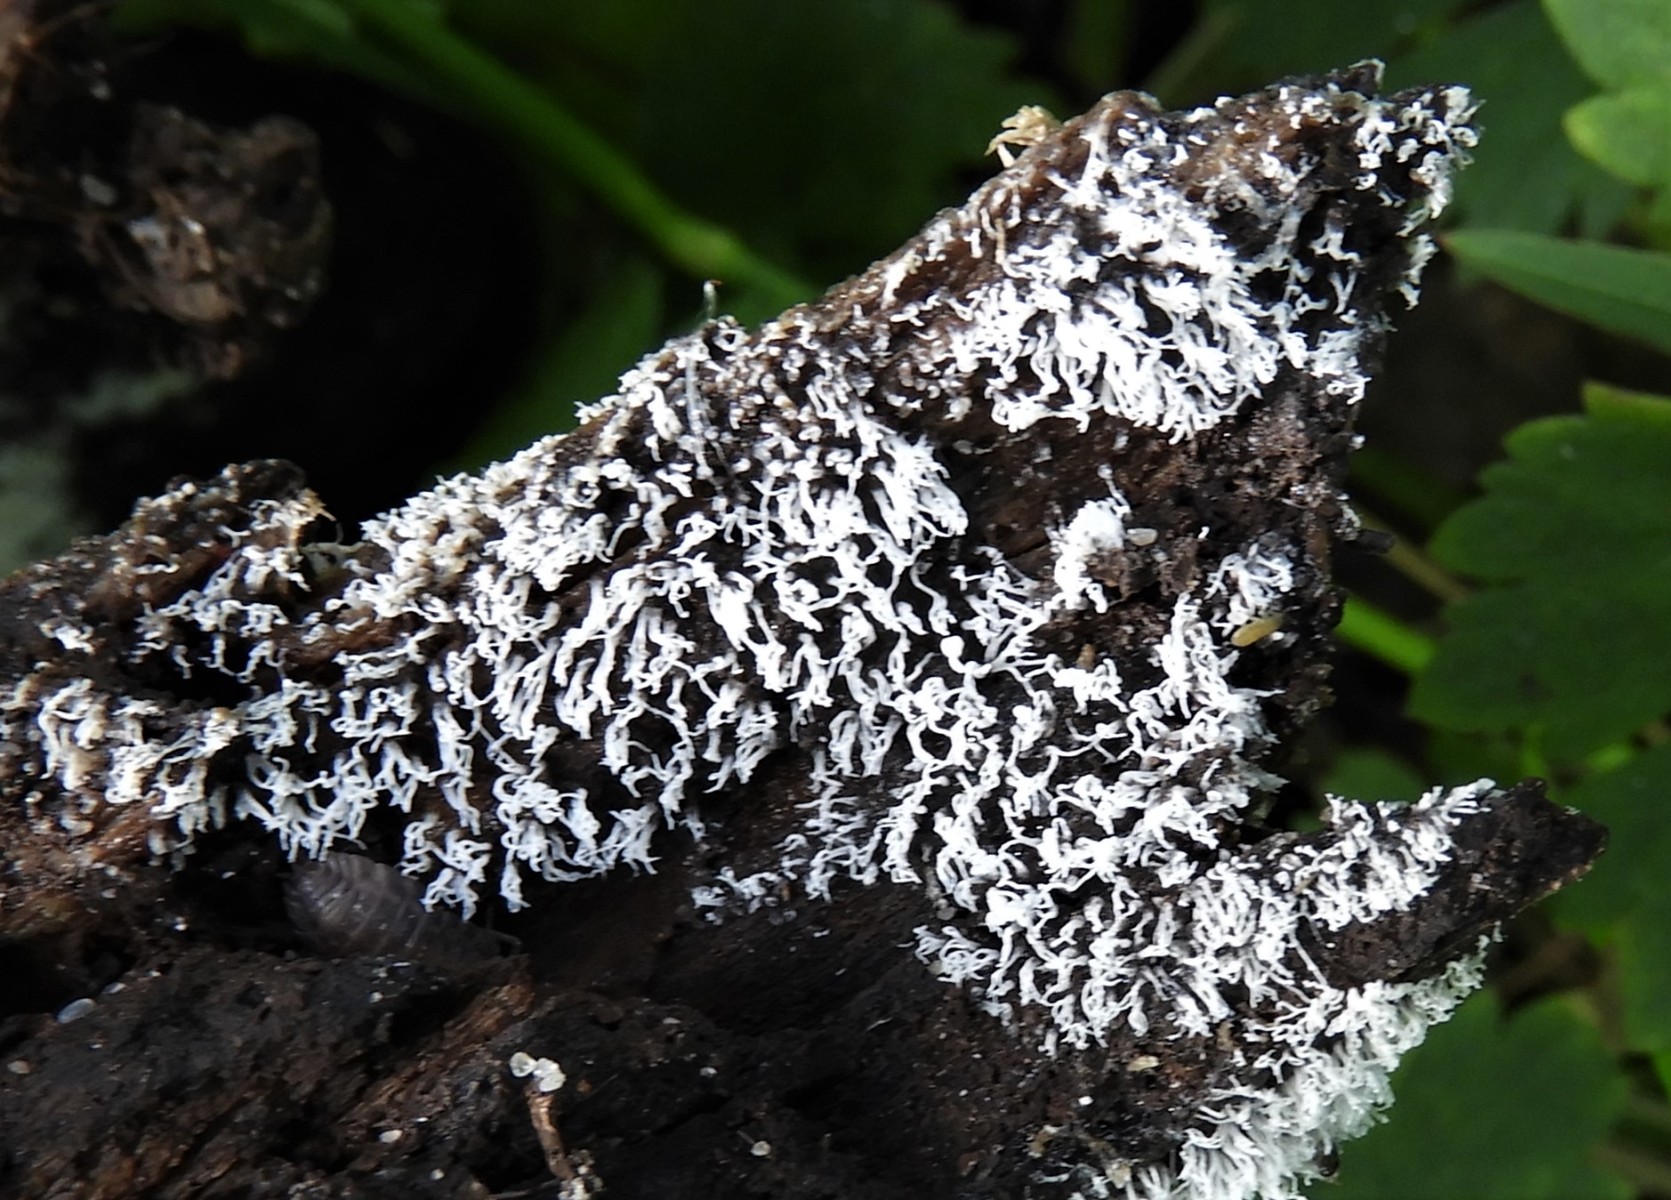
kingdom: Protozoa
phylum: Mycetozoa
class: Protosteliomycetes
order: Ceratiomyxales
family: Ceratiomyxaceae
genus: Ceratiomyxa
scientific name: Ceratiomyxa fruticulosa
